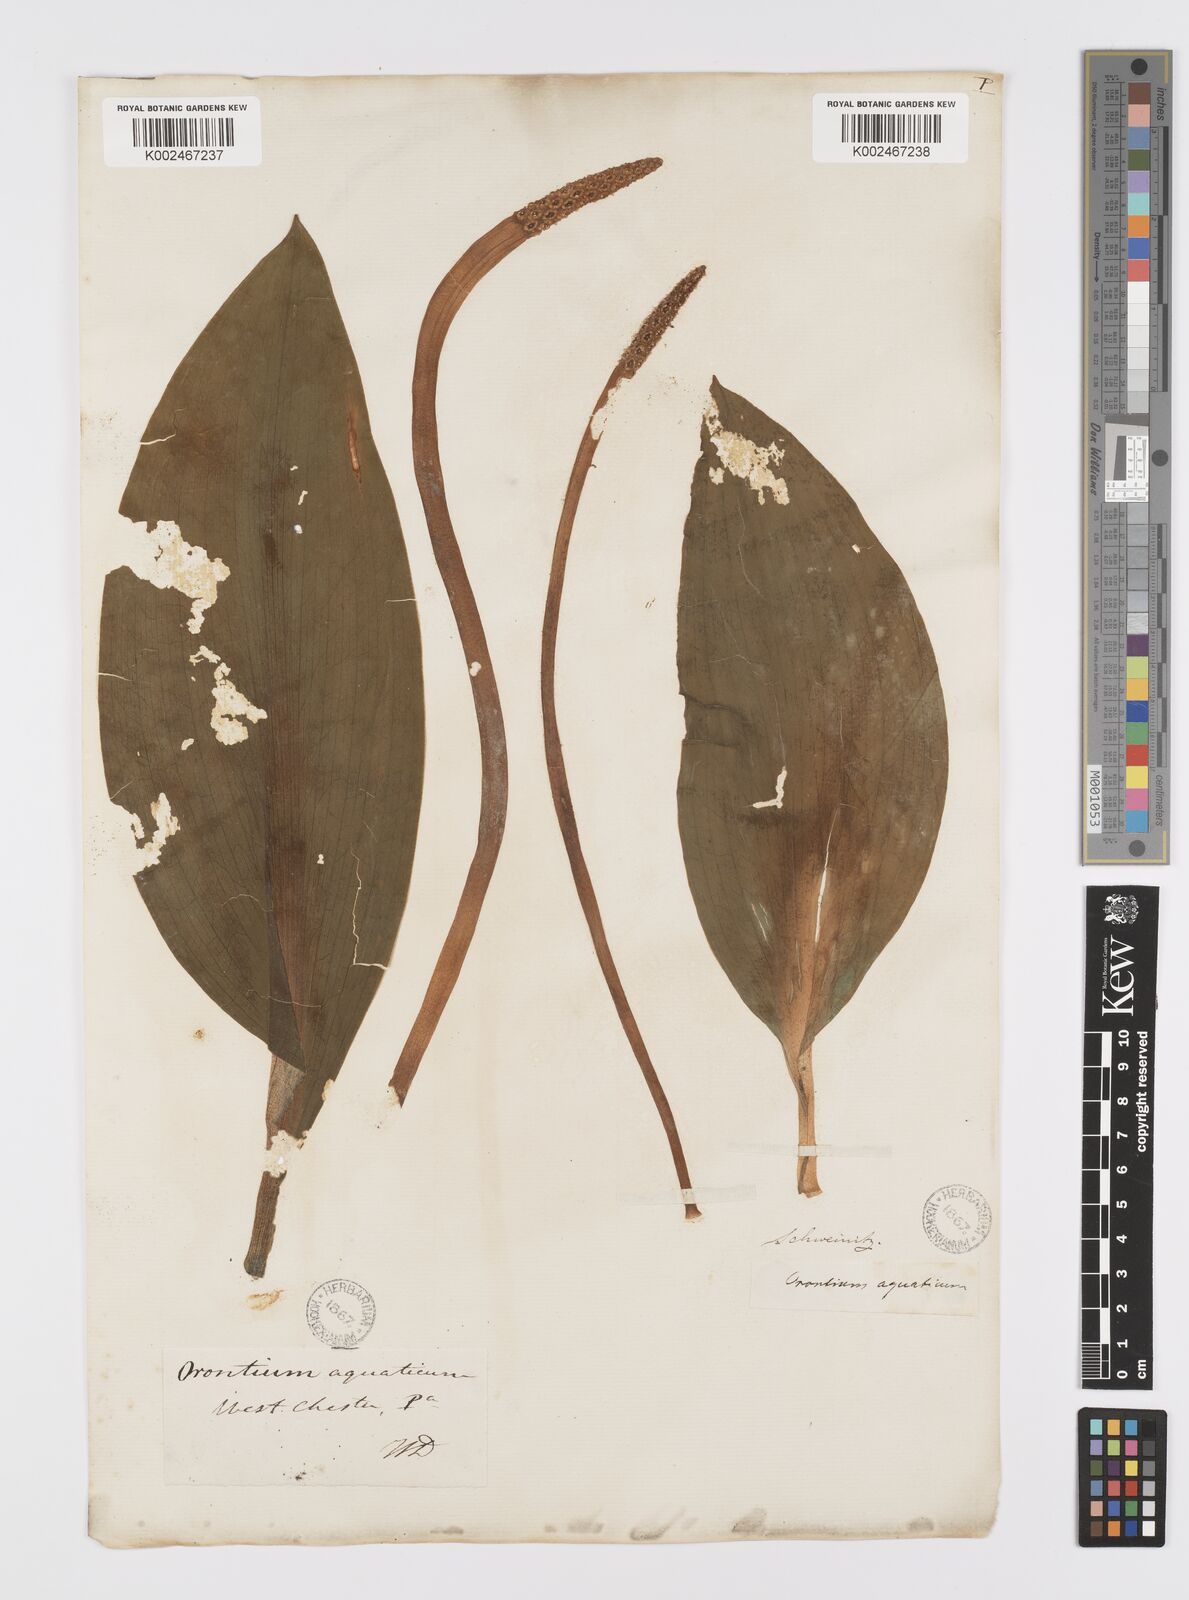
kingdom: Plantae
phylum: Tracheophyta
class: Liliopsida
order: Alismatales
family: Araceae
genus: Orontium
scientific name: Orontium aquaticum
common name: Golden-club
